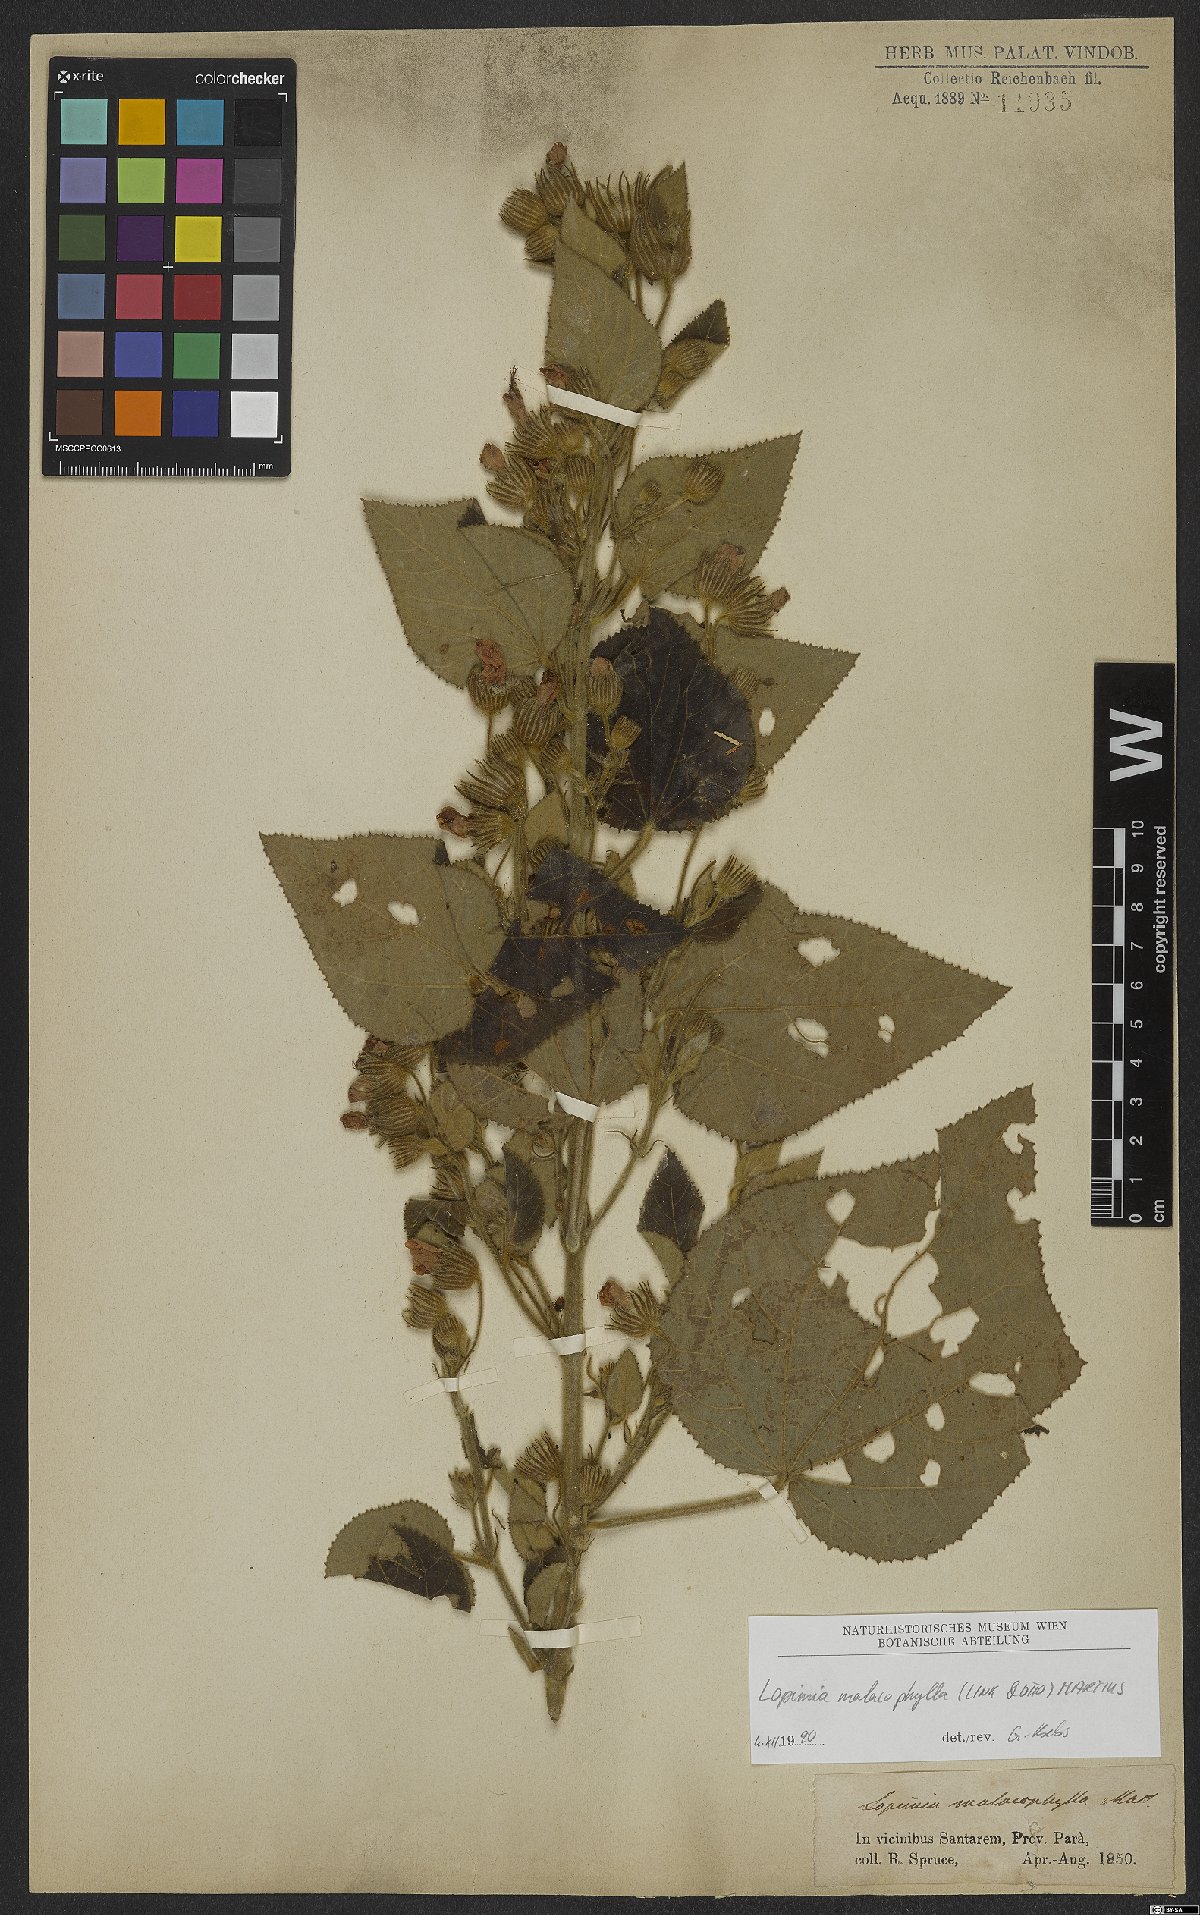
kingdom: Plantae
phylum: Tracheophyta
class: Magnoliopsida
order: Malvales
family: Malvaceae
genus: Pavonia
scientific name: Pavonia malacophylla
